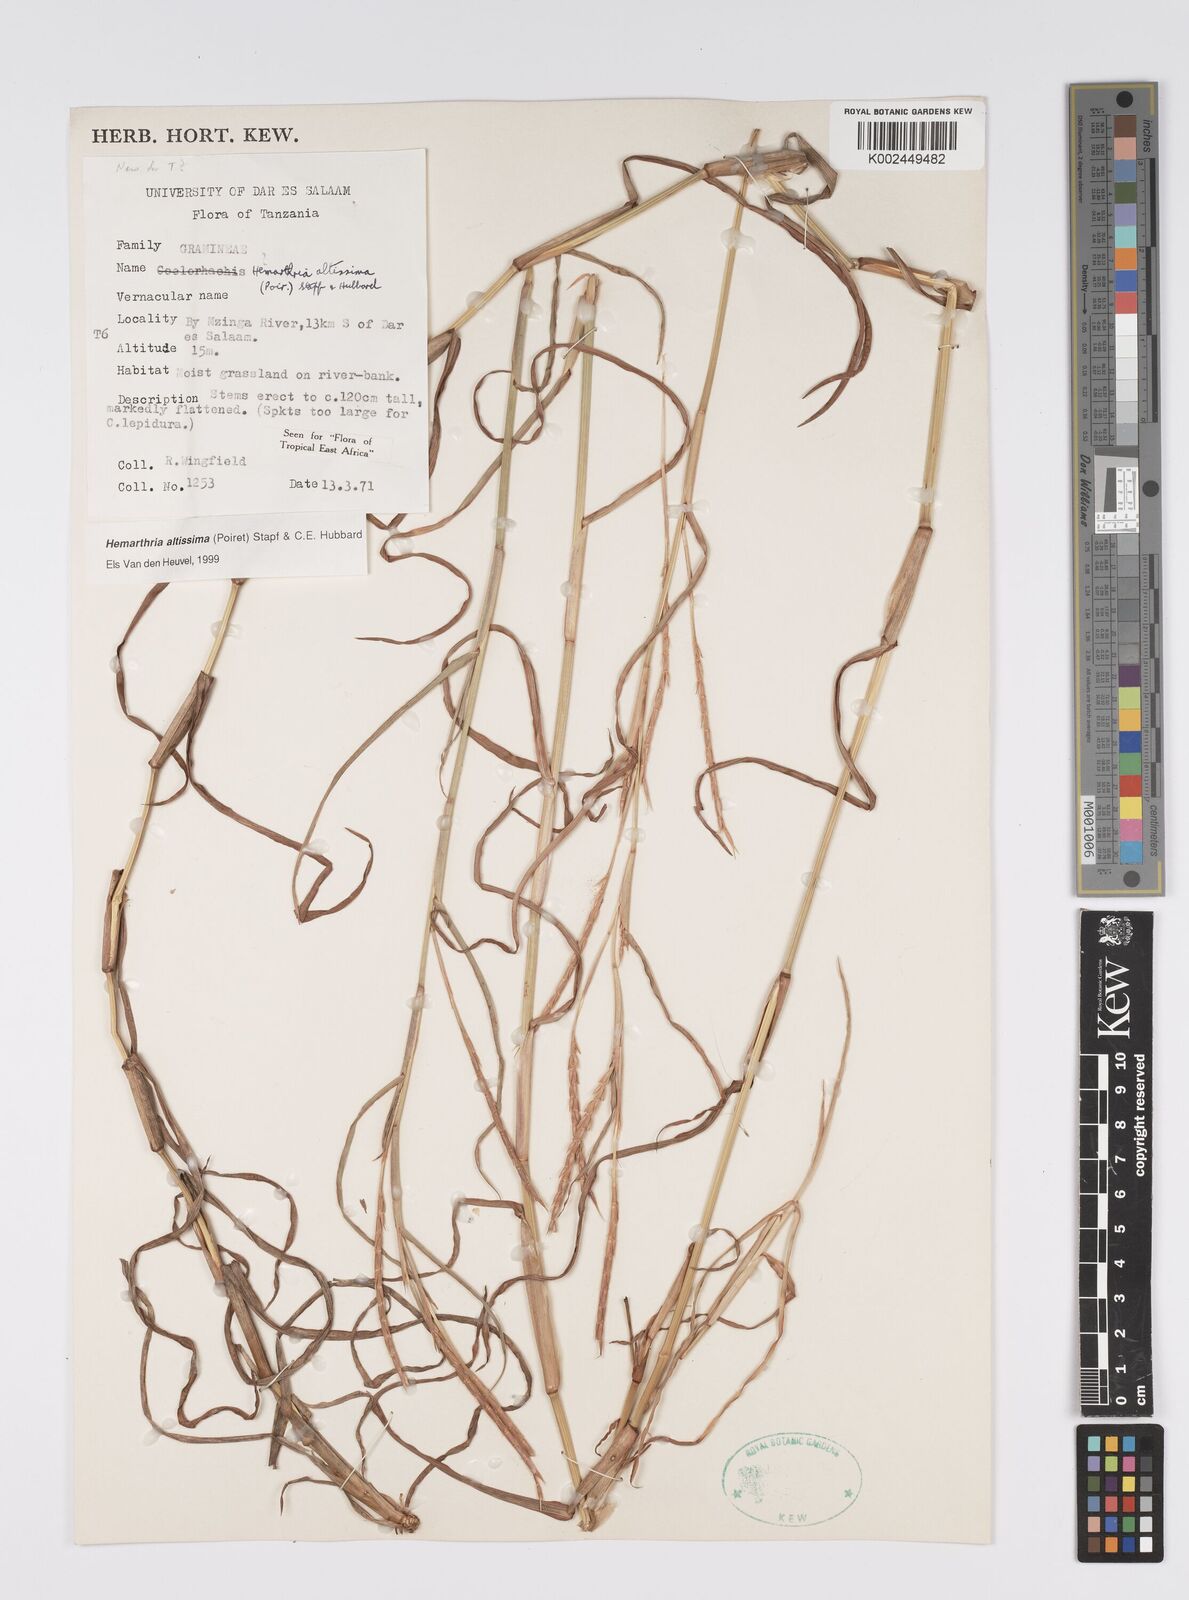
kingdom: Plantae
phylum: Tracheophyta
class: Liliopsida
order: Poales
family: Poaceae
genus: Hemarthria
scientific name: Hemarthria altissima
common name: African jointgrass
